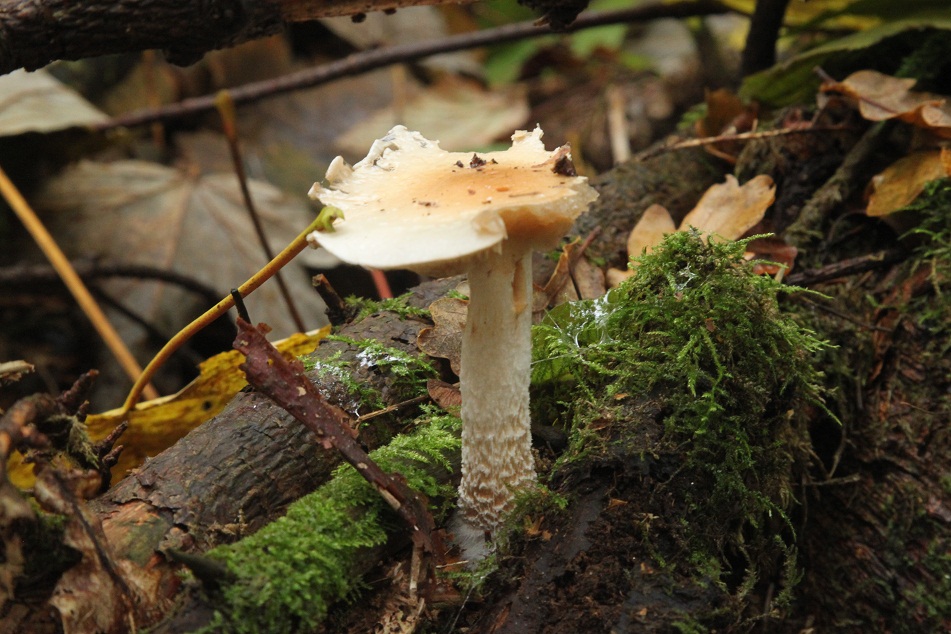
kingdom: Fungi
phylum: Basidiomycota
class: Agaricomycetes
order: Agaricales
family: Strophariaceae
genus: Pholiota
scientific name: Pholiota lenta
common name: løv-skælhat
